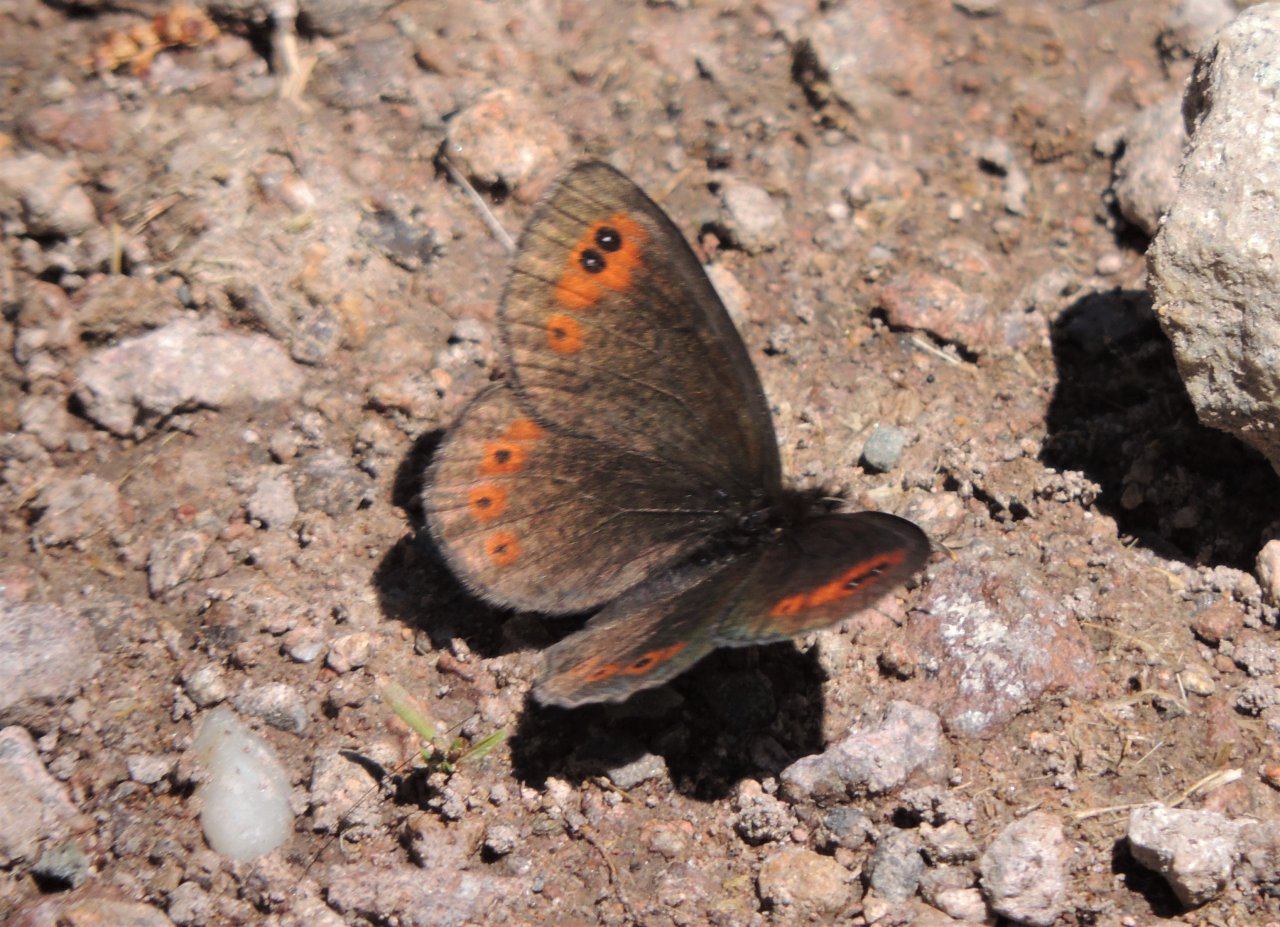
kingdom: Animalia
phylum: Arthropoda
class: Insecta
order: Lepidoptera
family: Nymphalidae
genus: Erebia
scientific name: Erebia epipsodea
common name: Common Alpine
